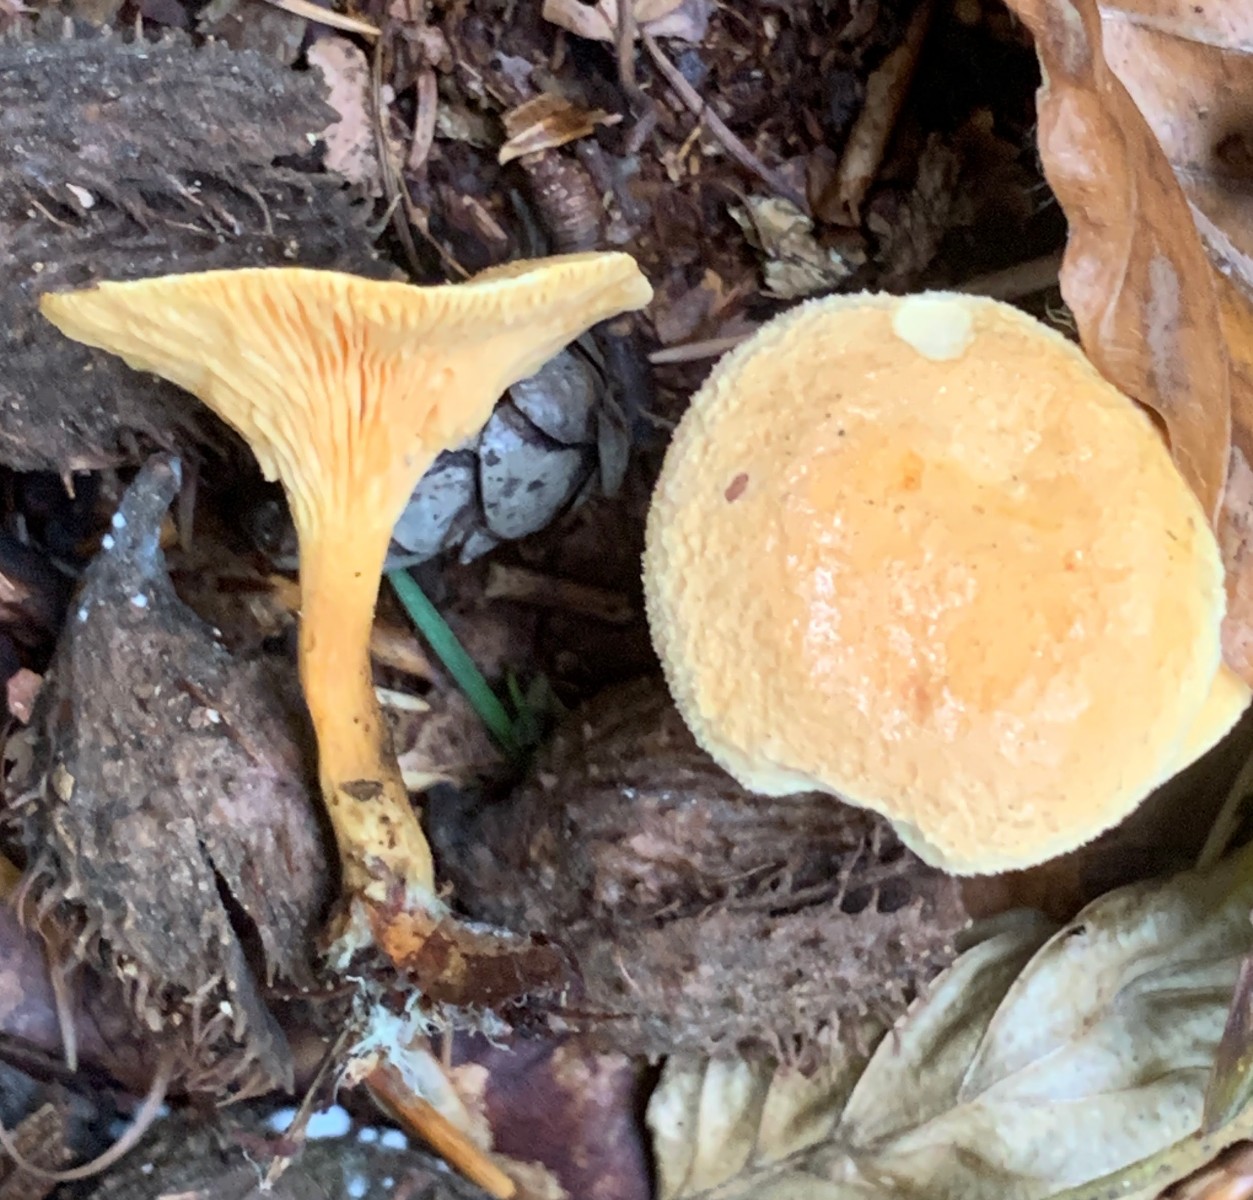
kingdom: Fungi
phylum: Basidiomycota
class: Agaricomycetes
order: Boletales
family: Hygrophoropsidaceae
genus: Hygrophoropsis
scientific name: Hygrophoropsis aurantiaca
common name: almindelig orangekantarel
